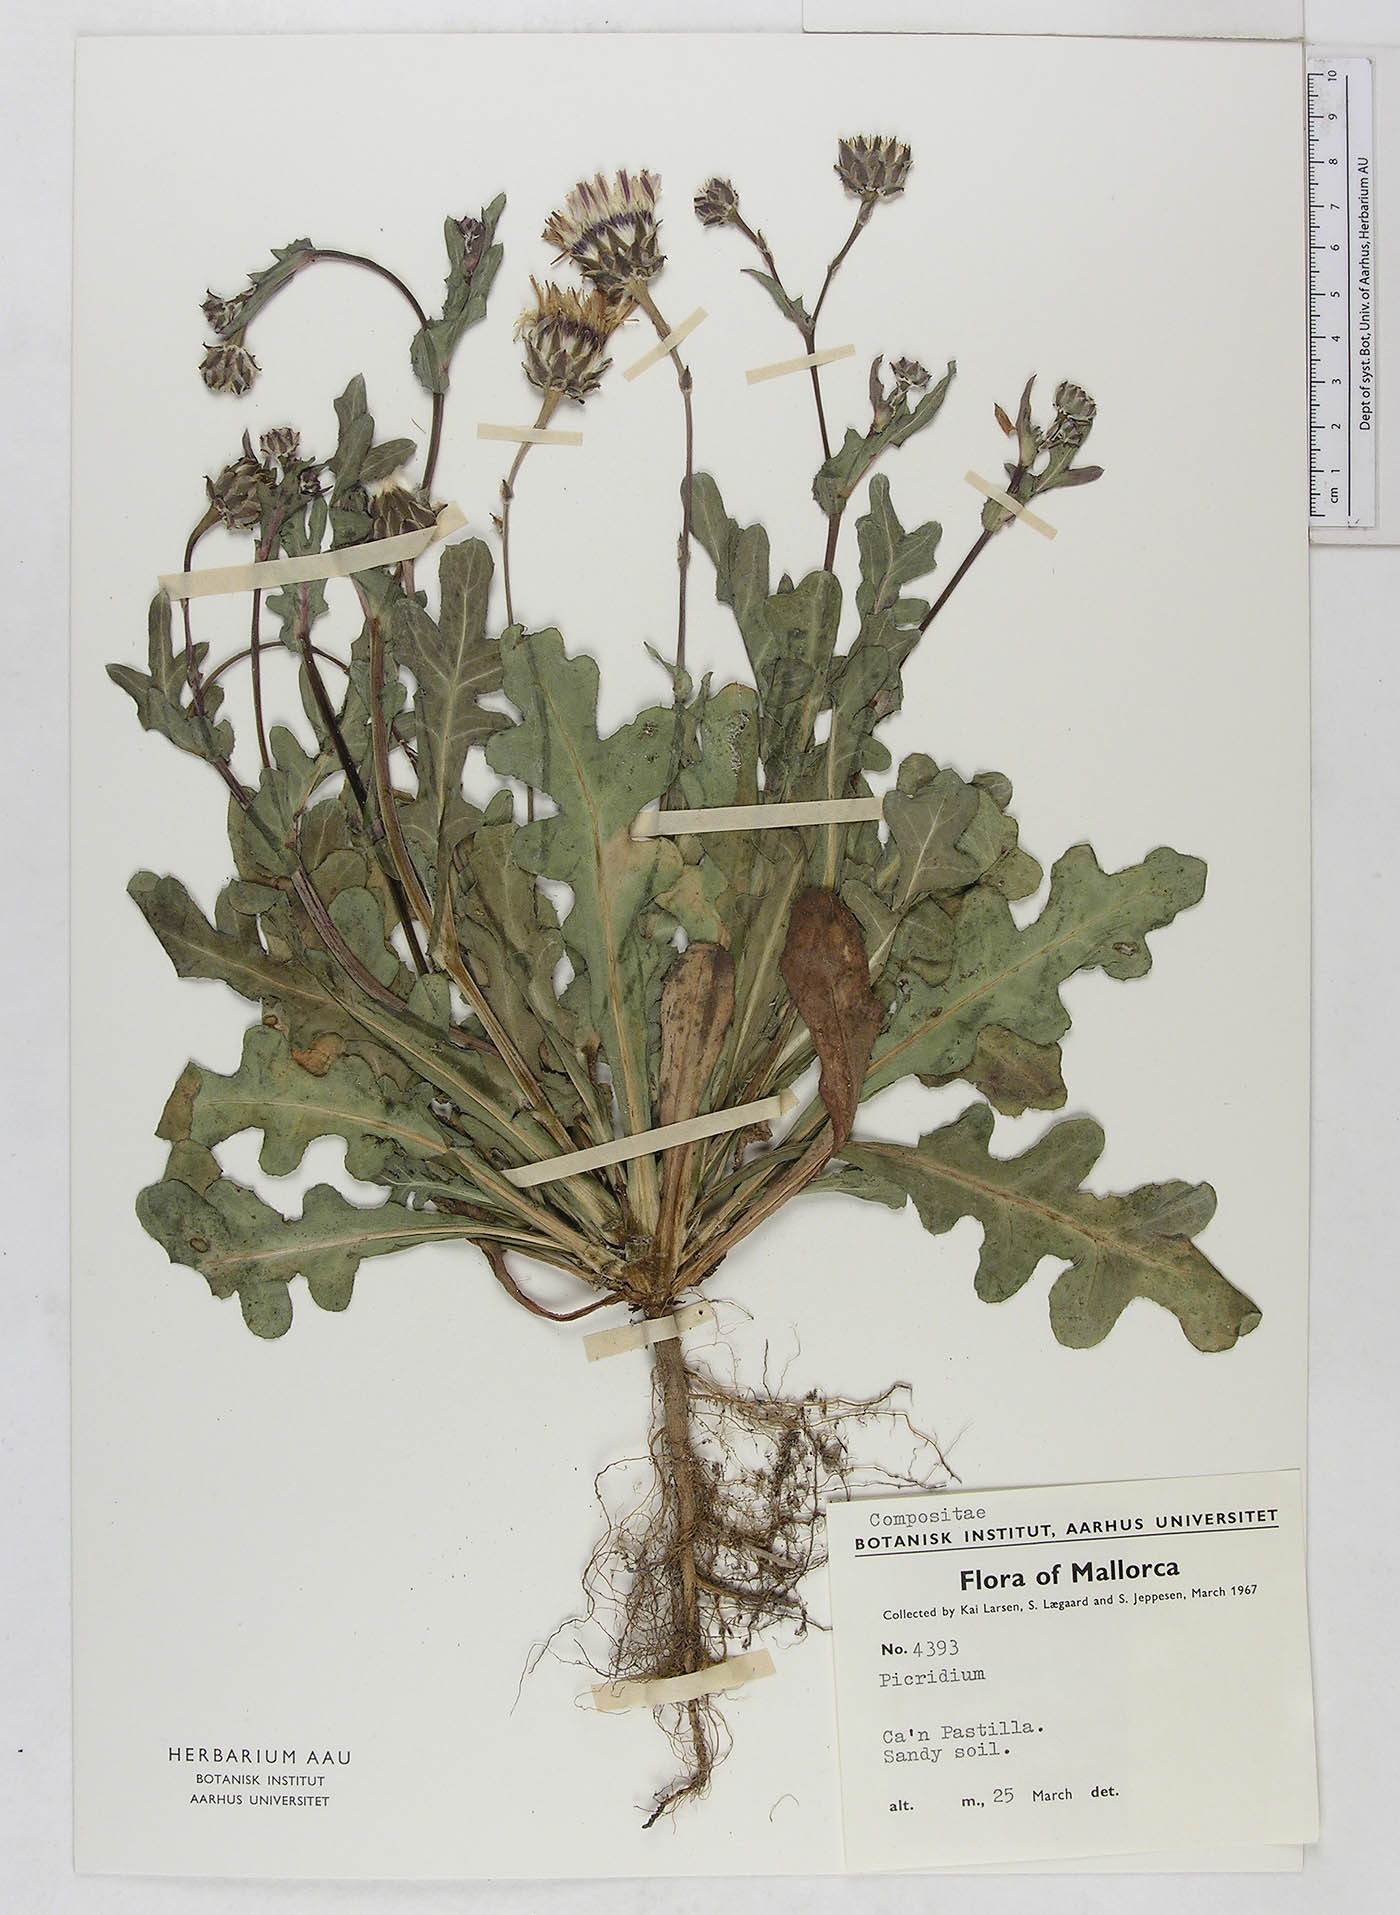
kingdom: Plantae
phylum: Tracheophyta
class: Magnoliopsida
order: Asterales
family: Asteraceae
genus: Reichardia
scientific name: Reichardia
